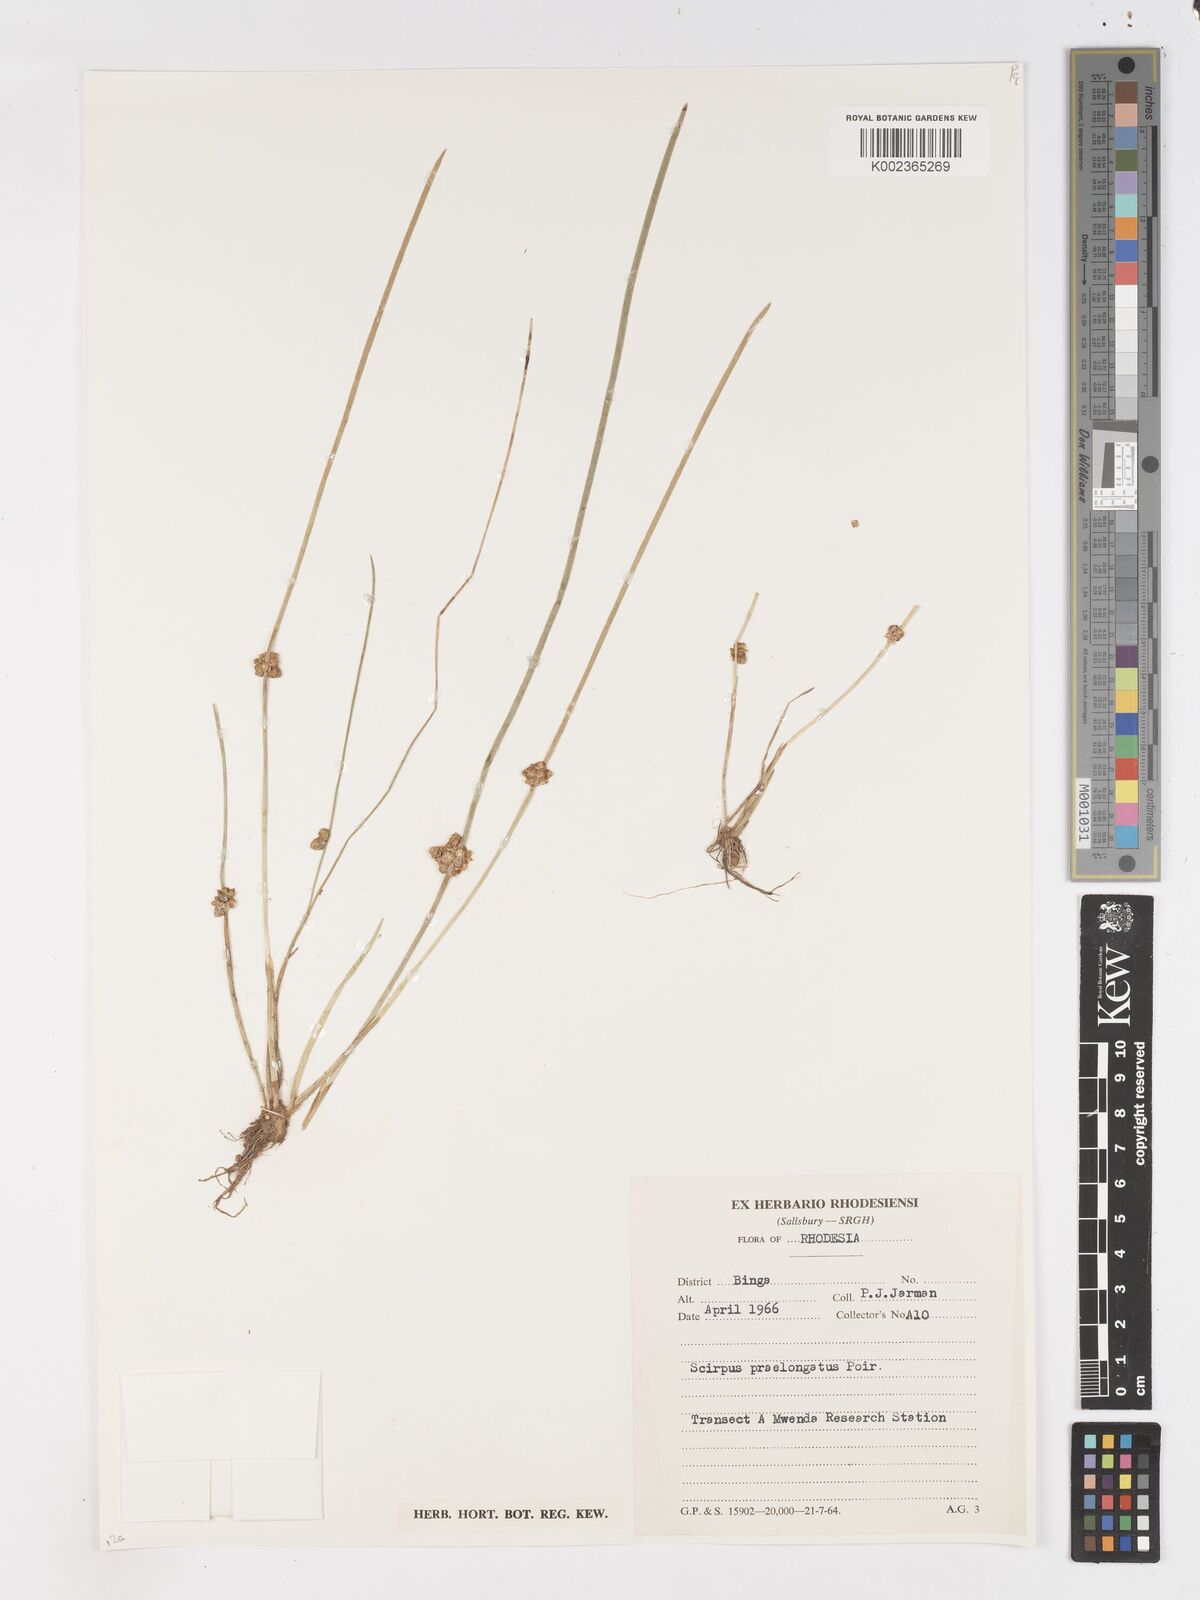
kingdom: Plantae
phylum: Tracheophyta
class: Liliopsida
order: Poales
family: Cyperaceae
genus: Schoenoplectiella
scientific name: Schoenoplectiella senegalensis
